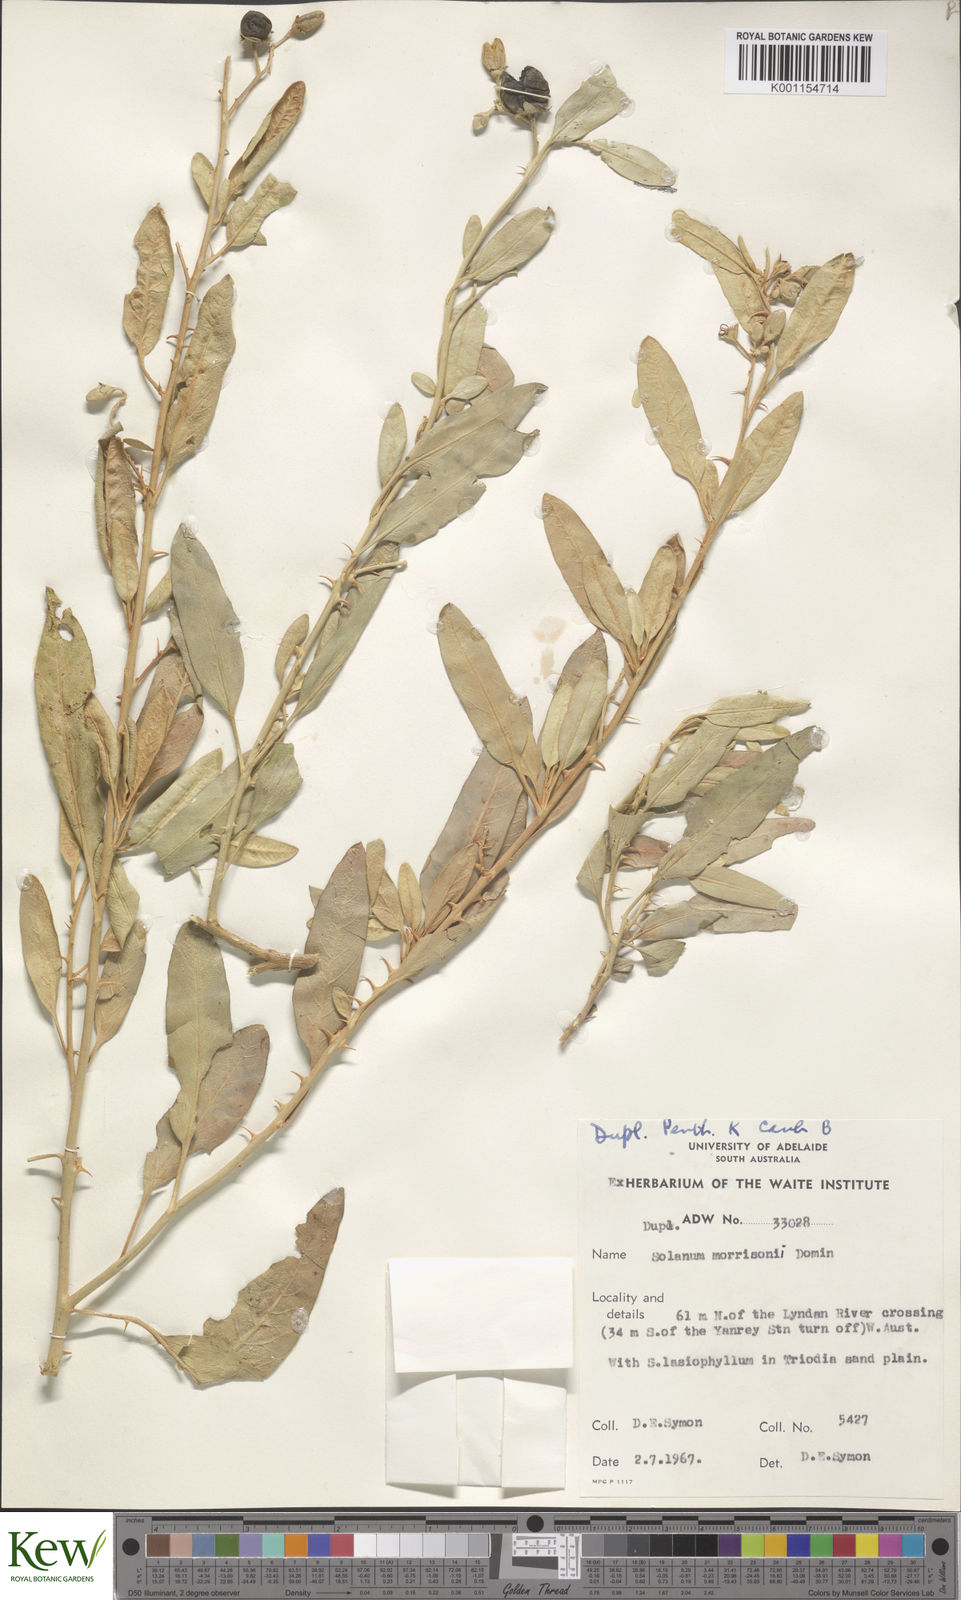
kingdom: Plantae
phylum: Tracheophyta
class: Magnoliopsida
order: Solanales
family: Solanaceae
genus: Solanum
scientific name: Solanum sturtianum
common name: Thargomindah nightshade
